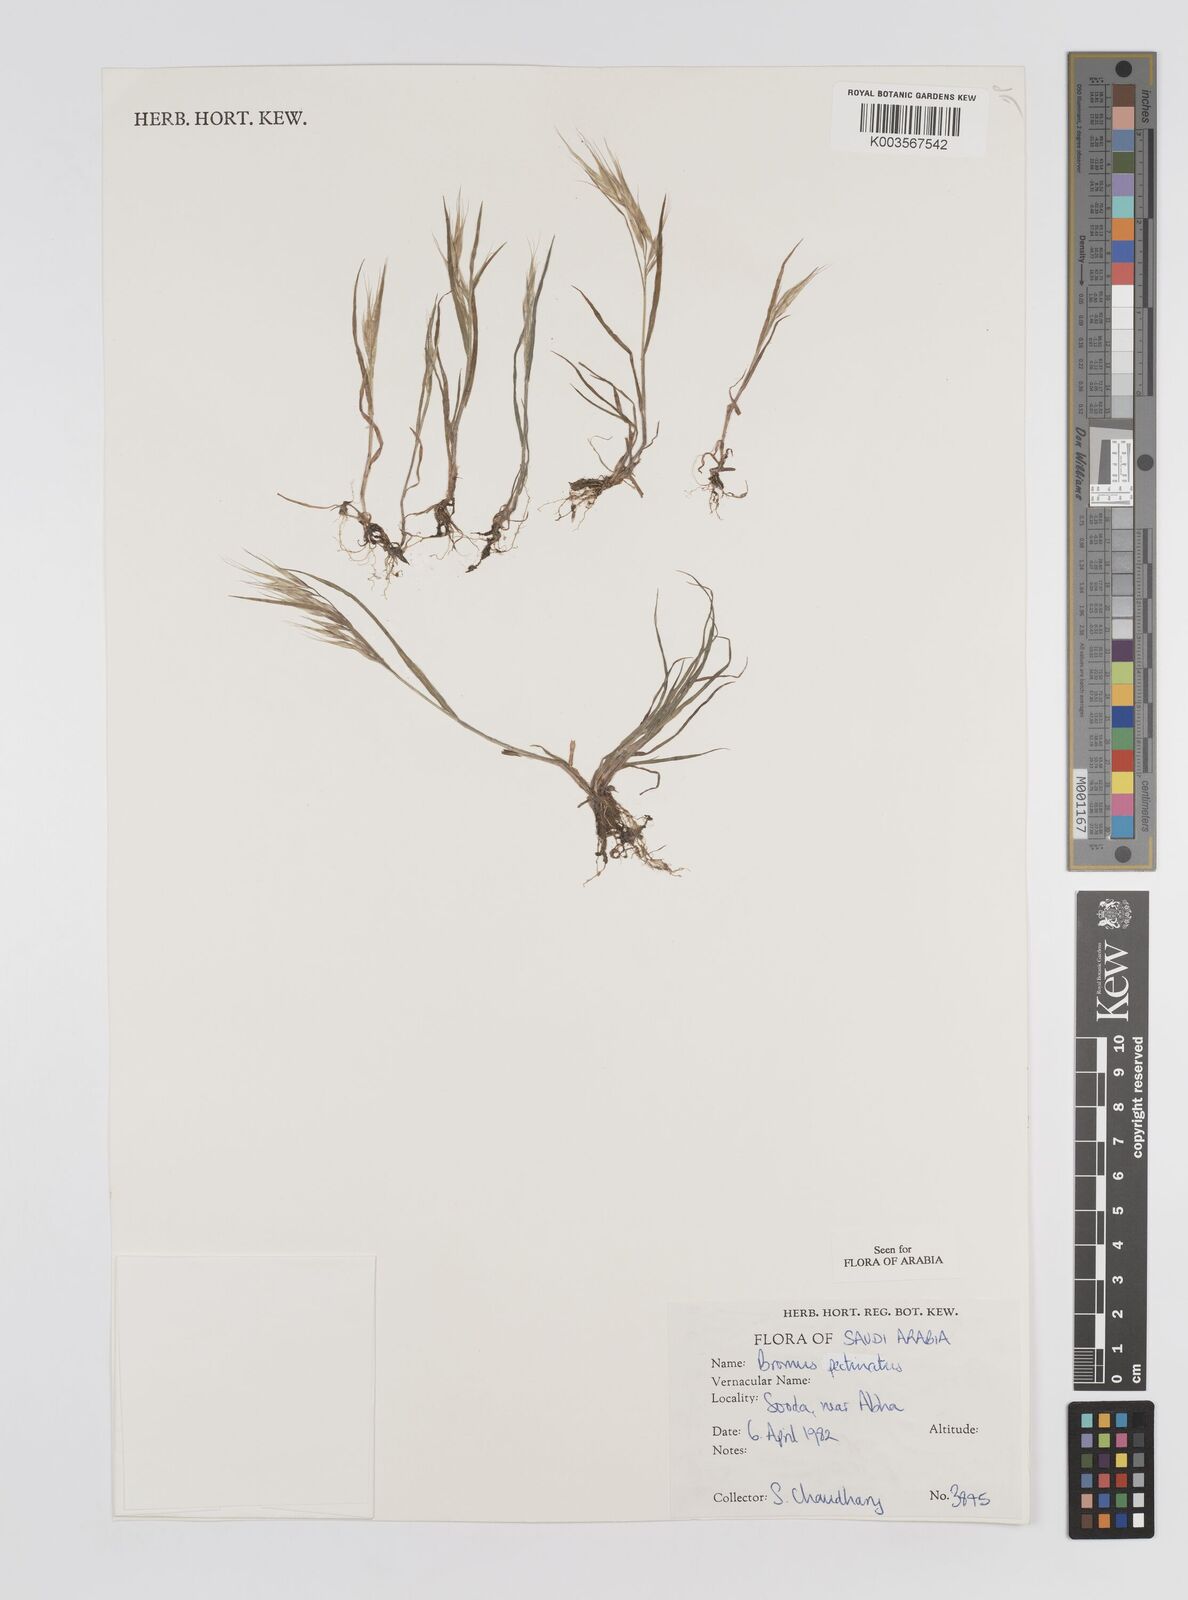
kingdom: Plantae
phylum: Tracheophyta
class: Liliopsida
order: Poales
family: Poaceae
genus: Bromus
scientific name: Bromus pectinatus
